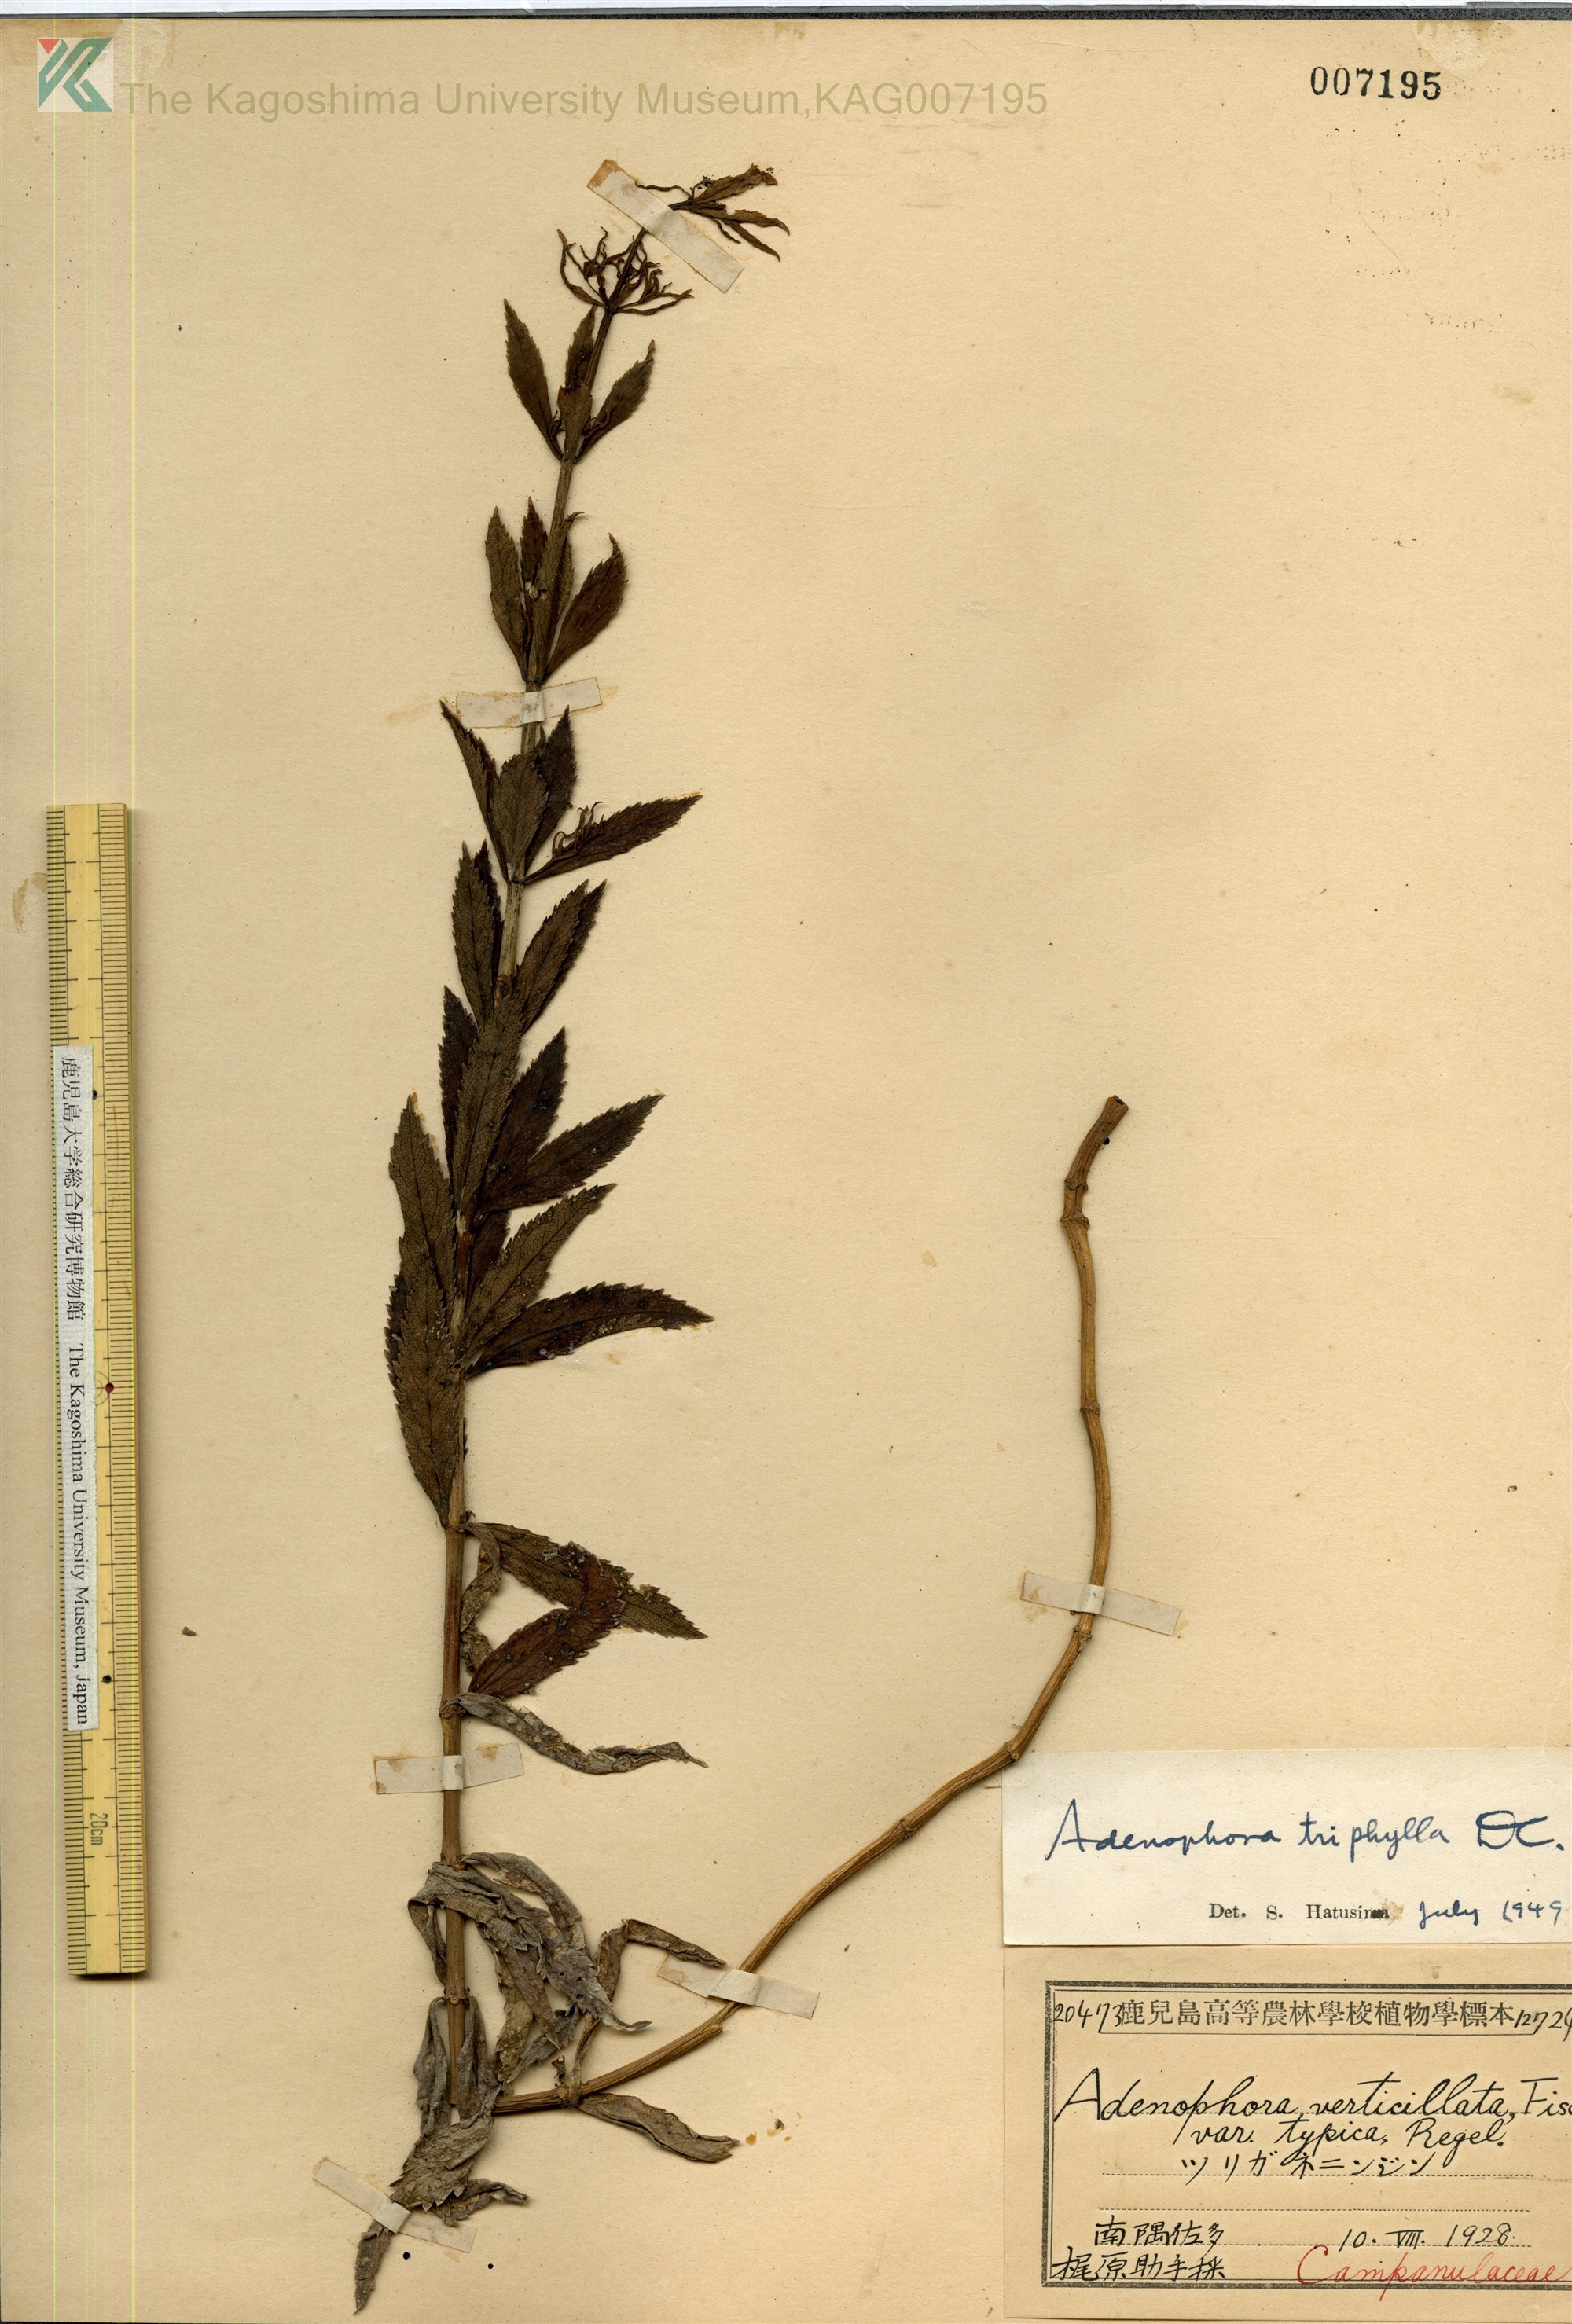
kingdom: Plantae
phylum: Tracheophyta
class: Magnoliopsida
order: Asterales
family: Campanulaceae
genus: Adenophora
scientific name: Adenophora triphylla
